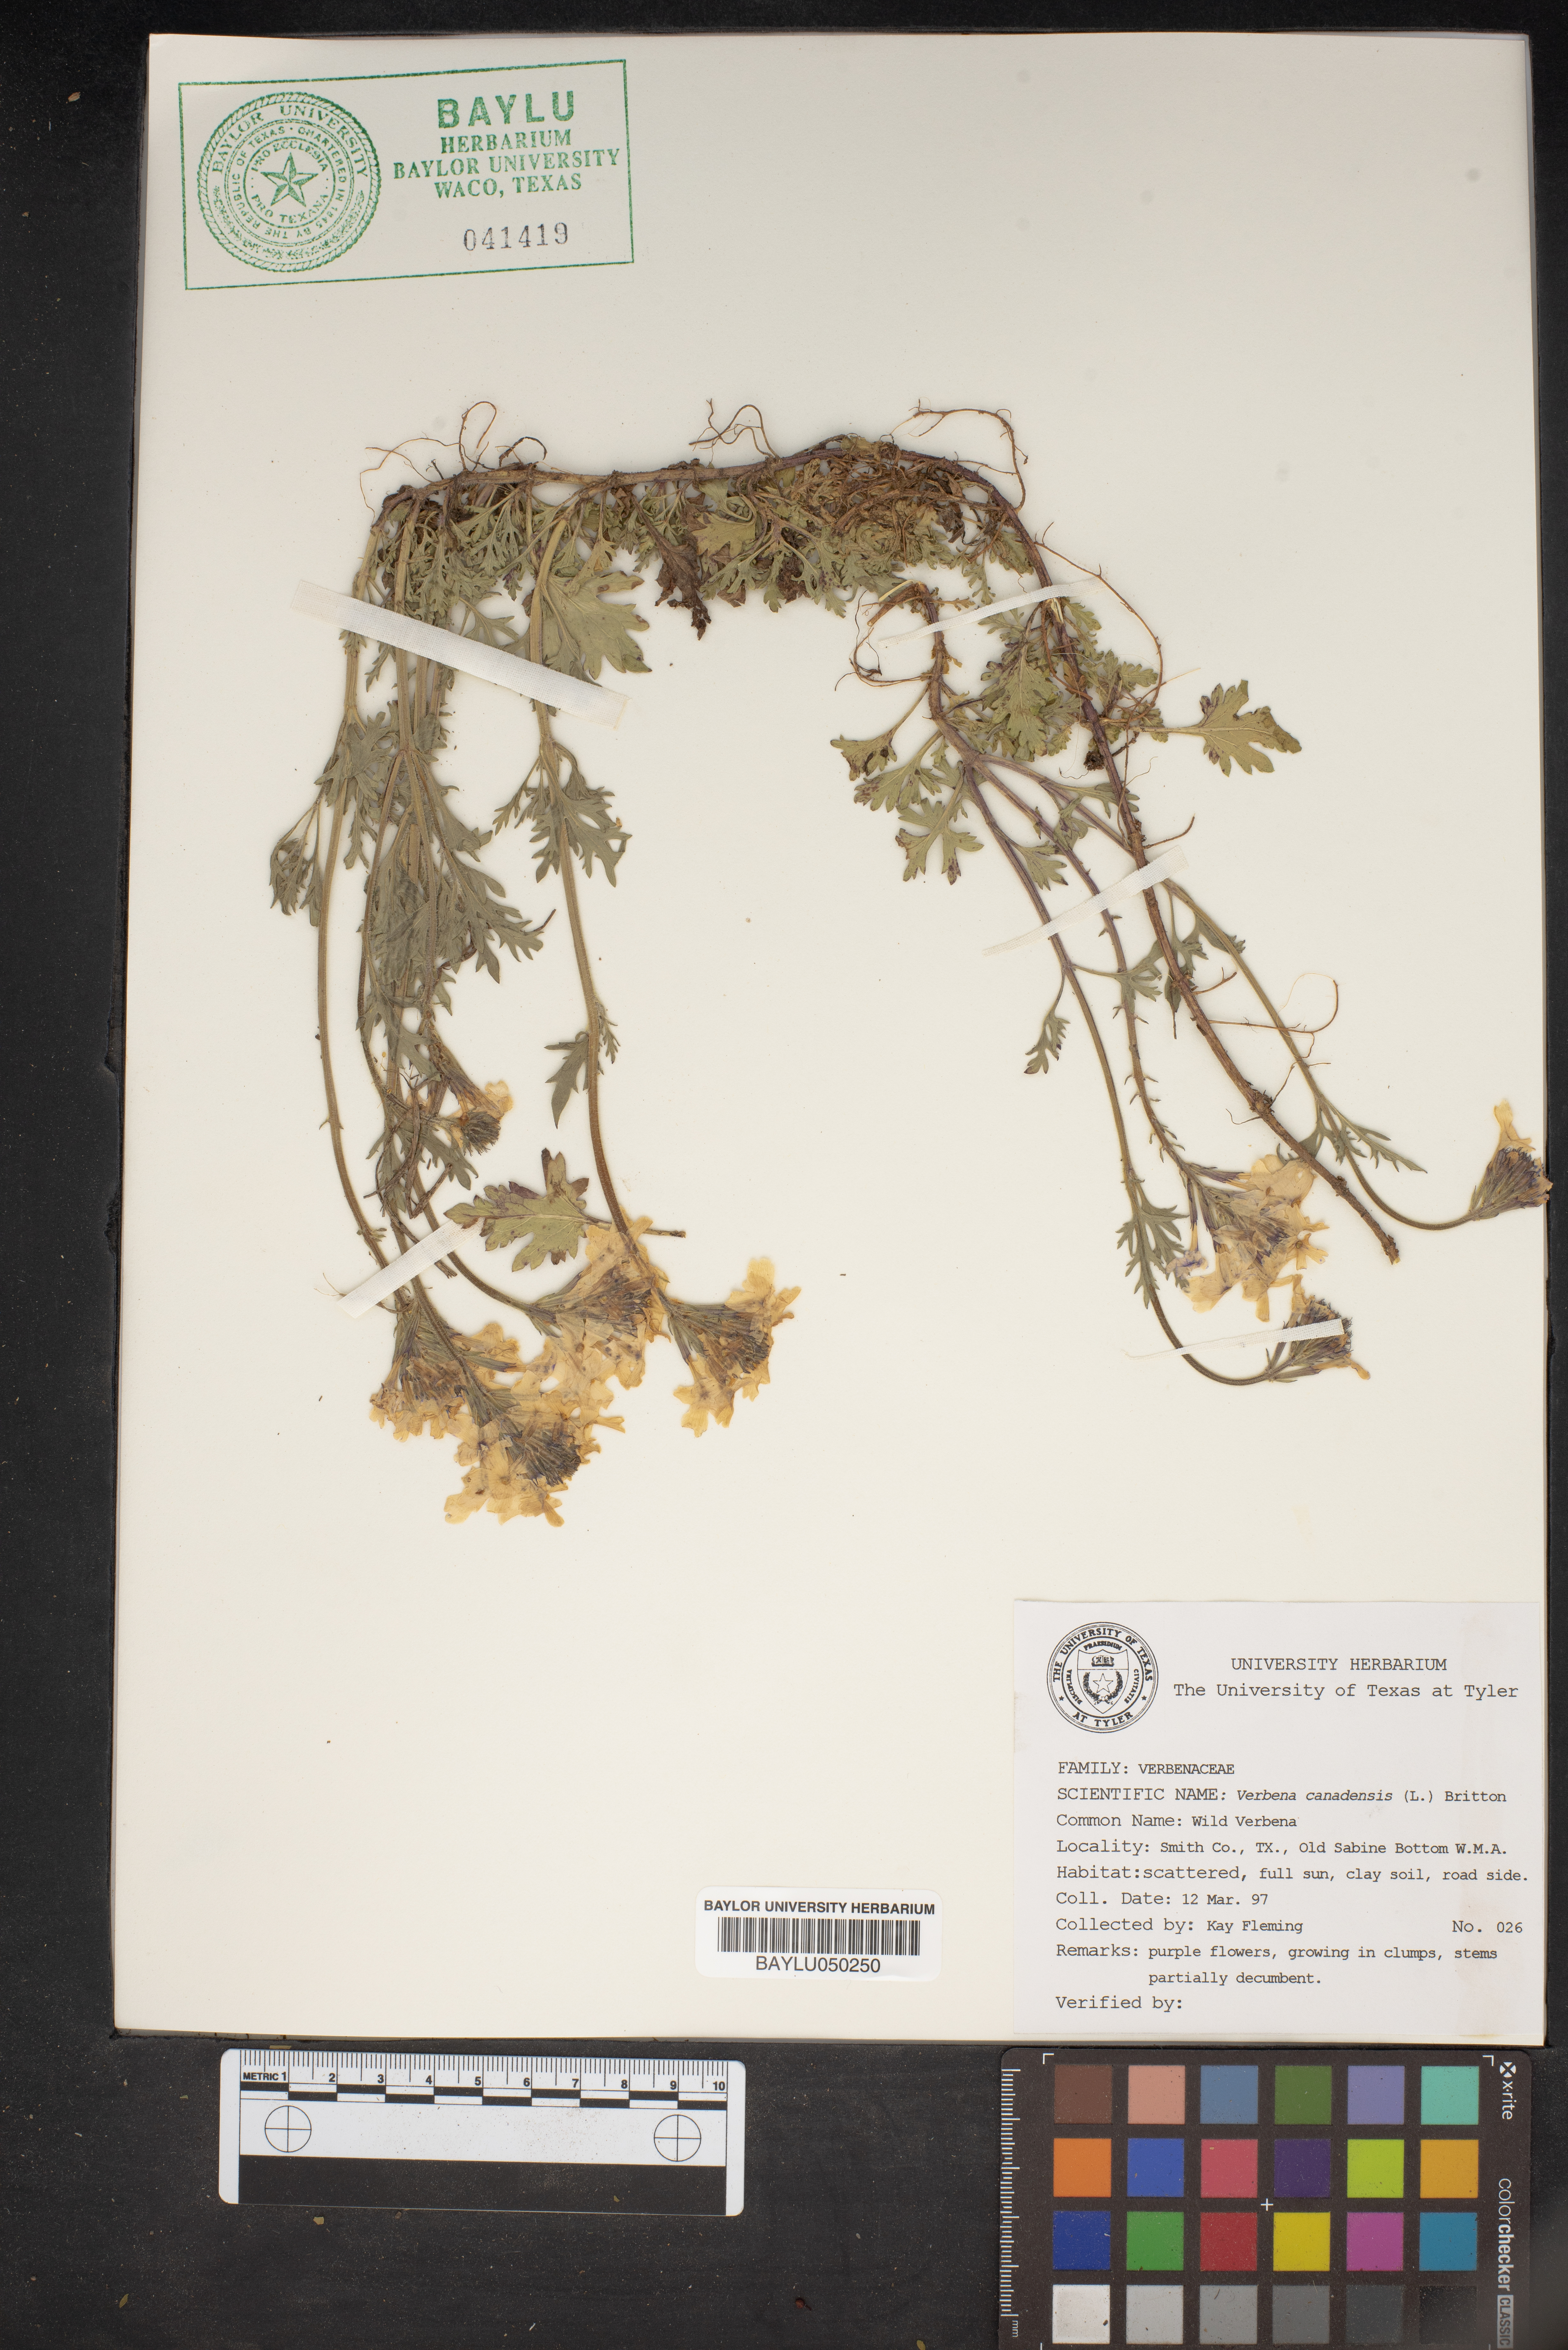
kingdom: Plantae
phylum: Tracheophyta
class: Magnoliopsida
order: Lamiales
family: Verbenaceae
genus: Verbena
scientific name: Verbena canadensis
